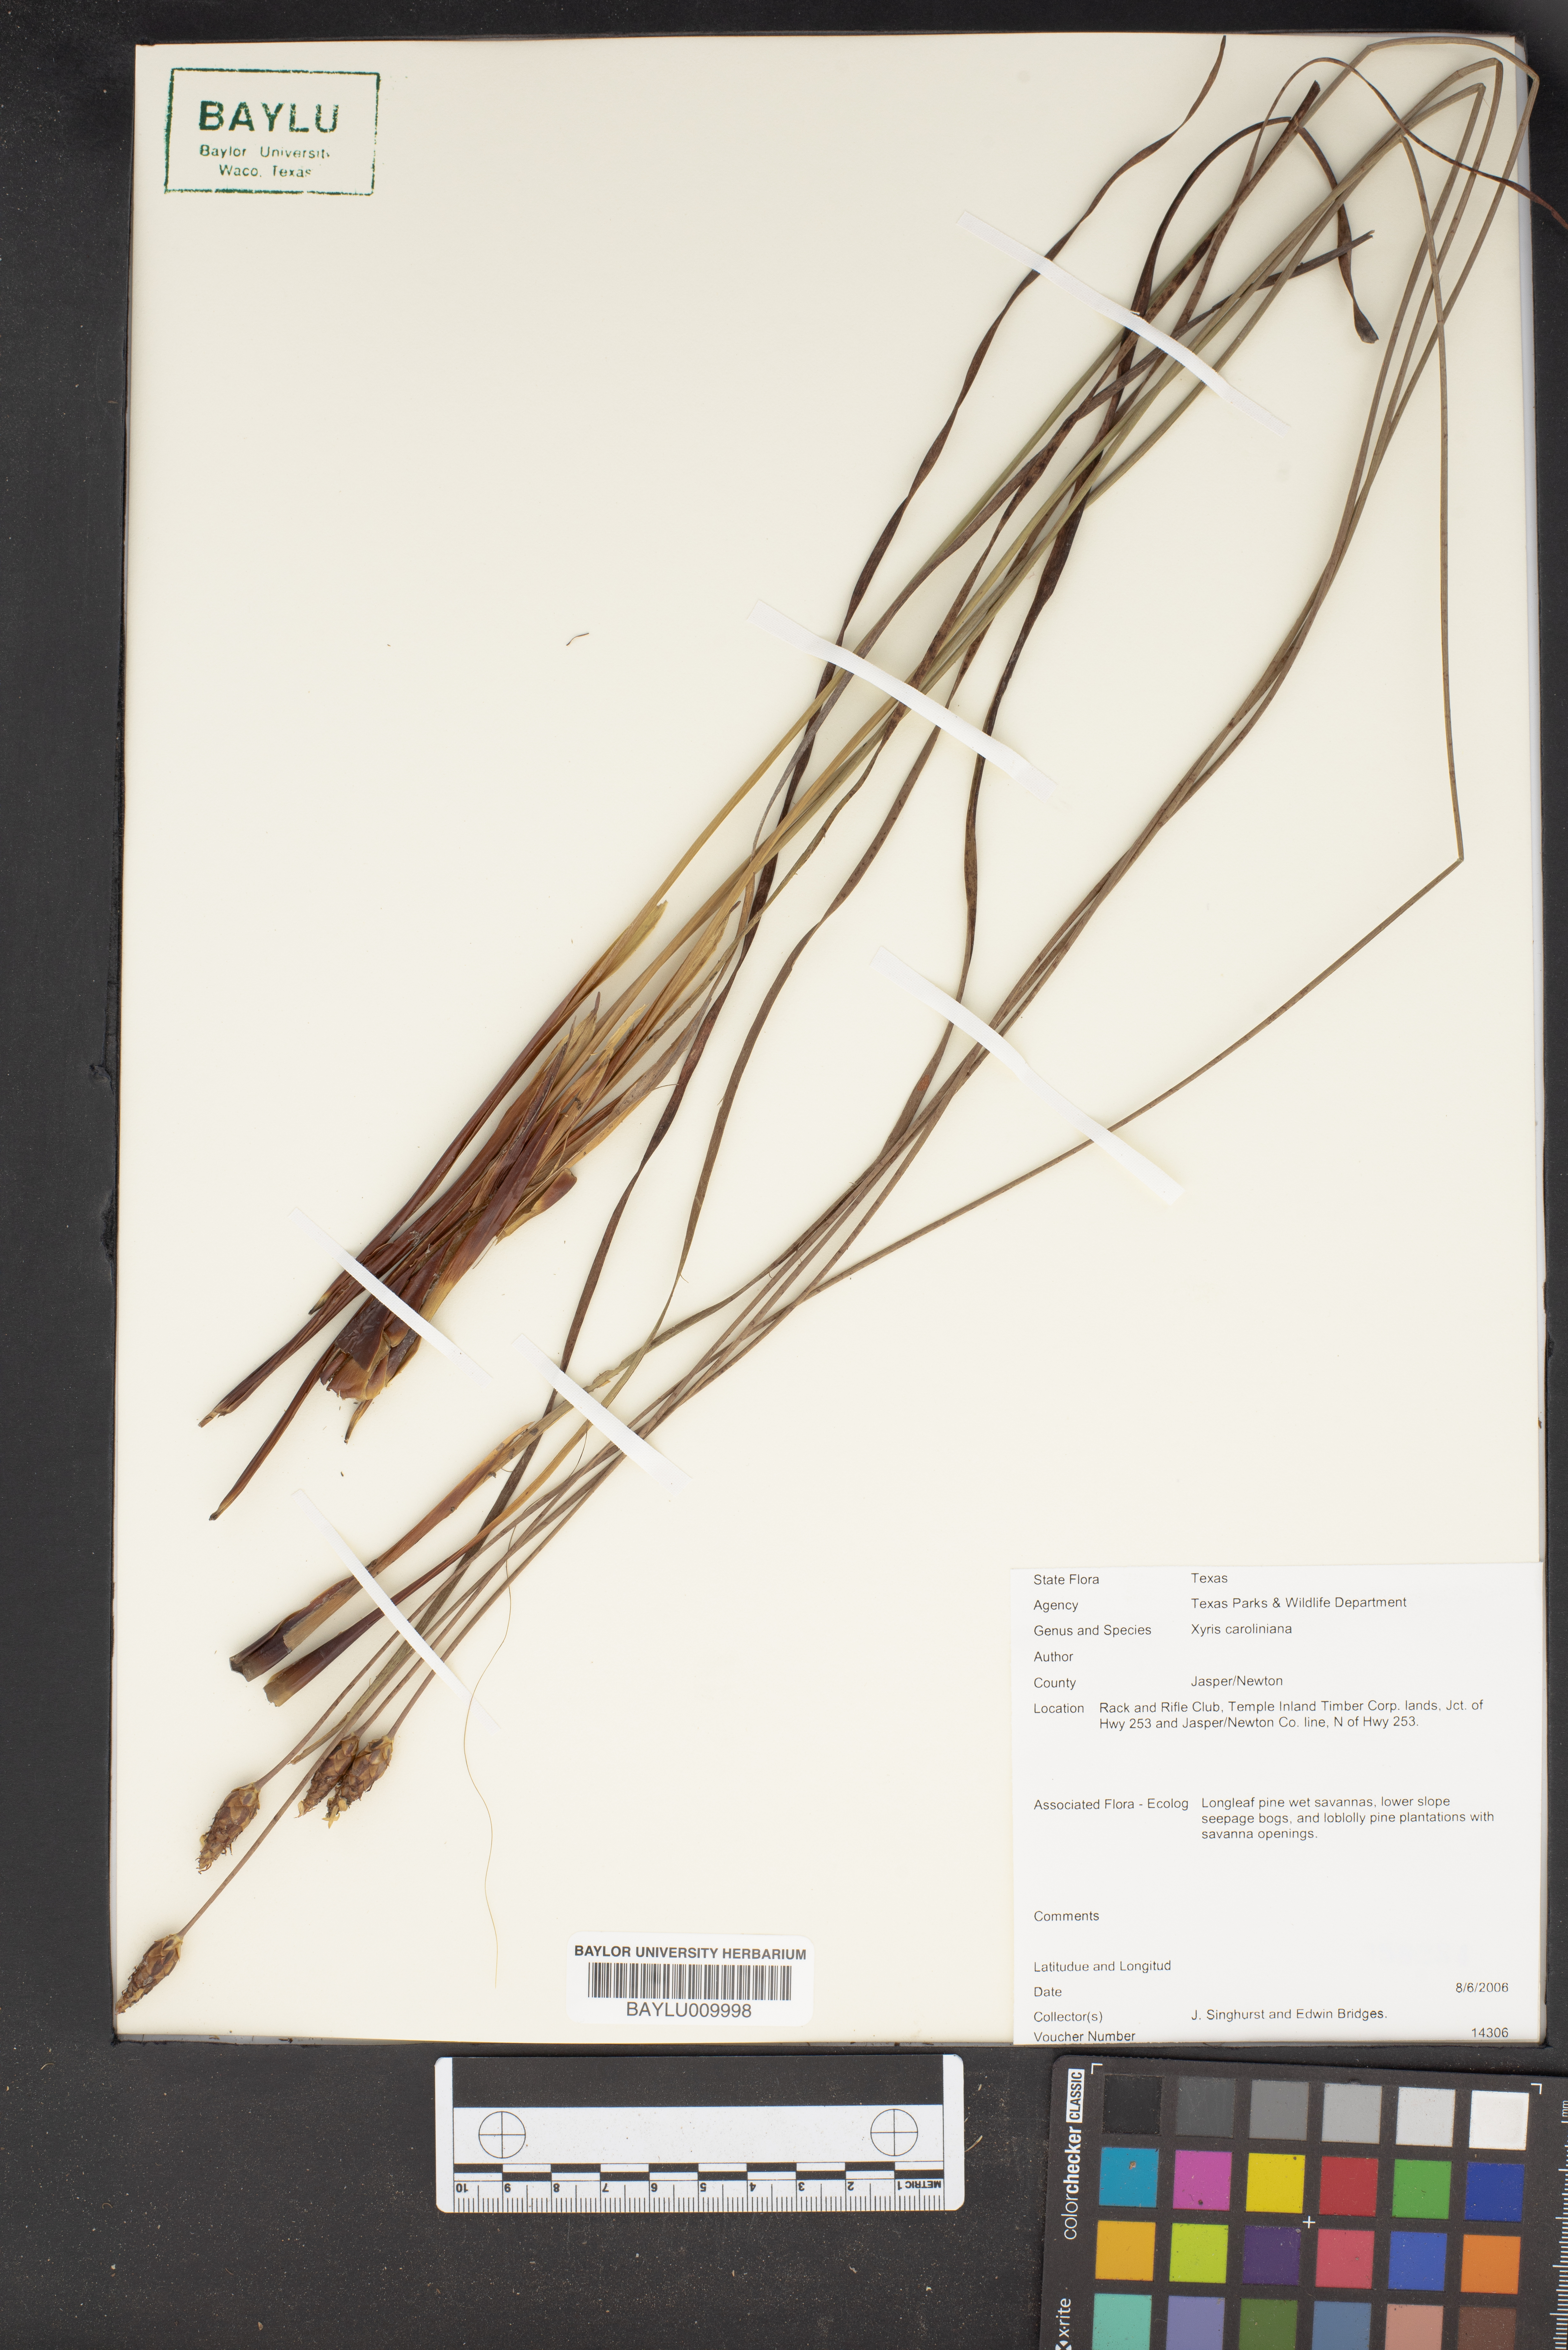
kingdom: Plantae
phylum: Tracheophyta
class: Liliopsida
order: Poales
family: Xyridaceae
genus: Xyris
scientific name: Xyris caroliniana
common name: Carolina yellow-eyed-grass
